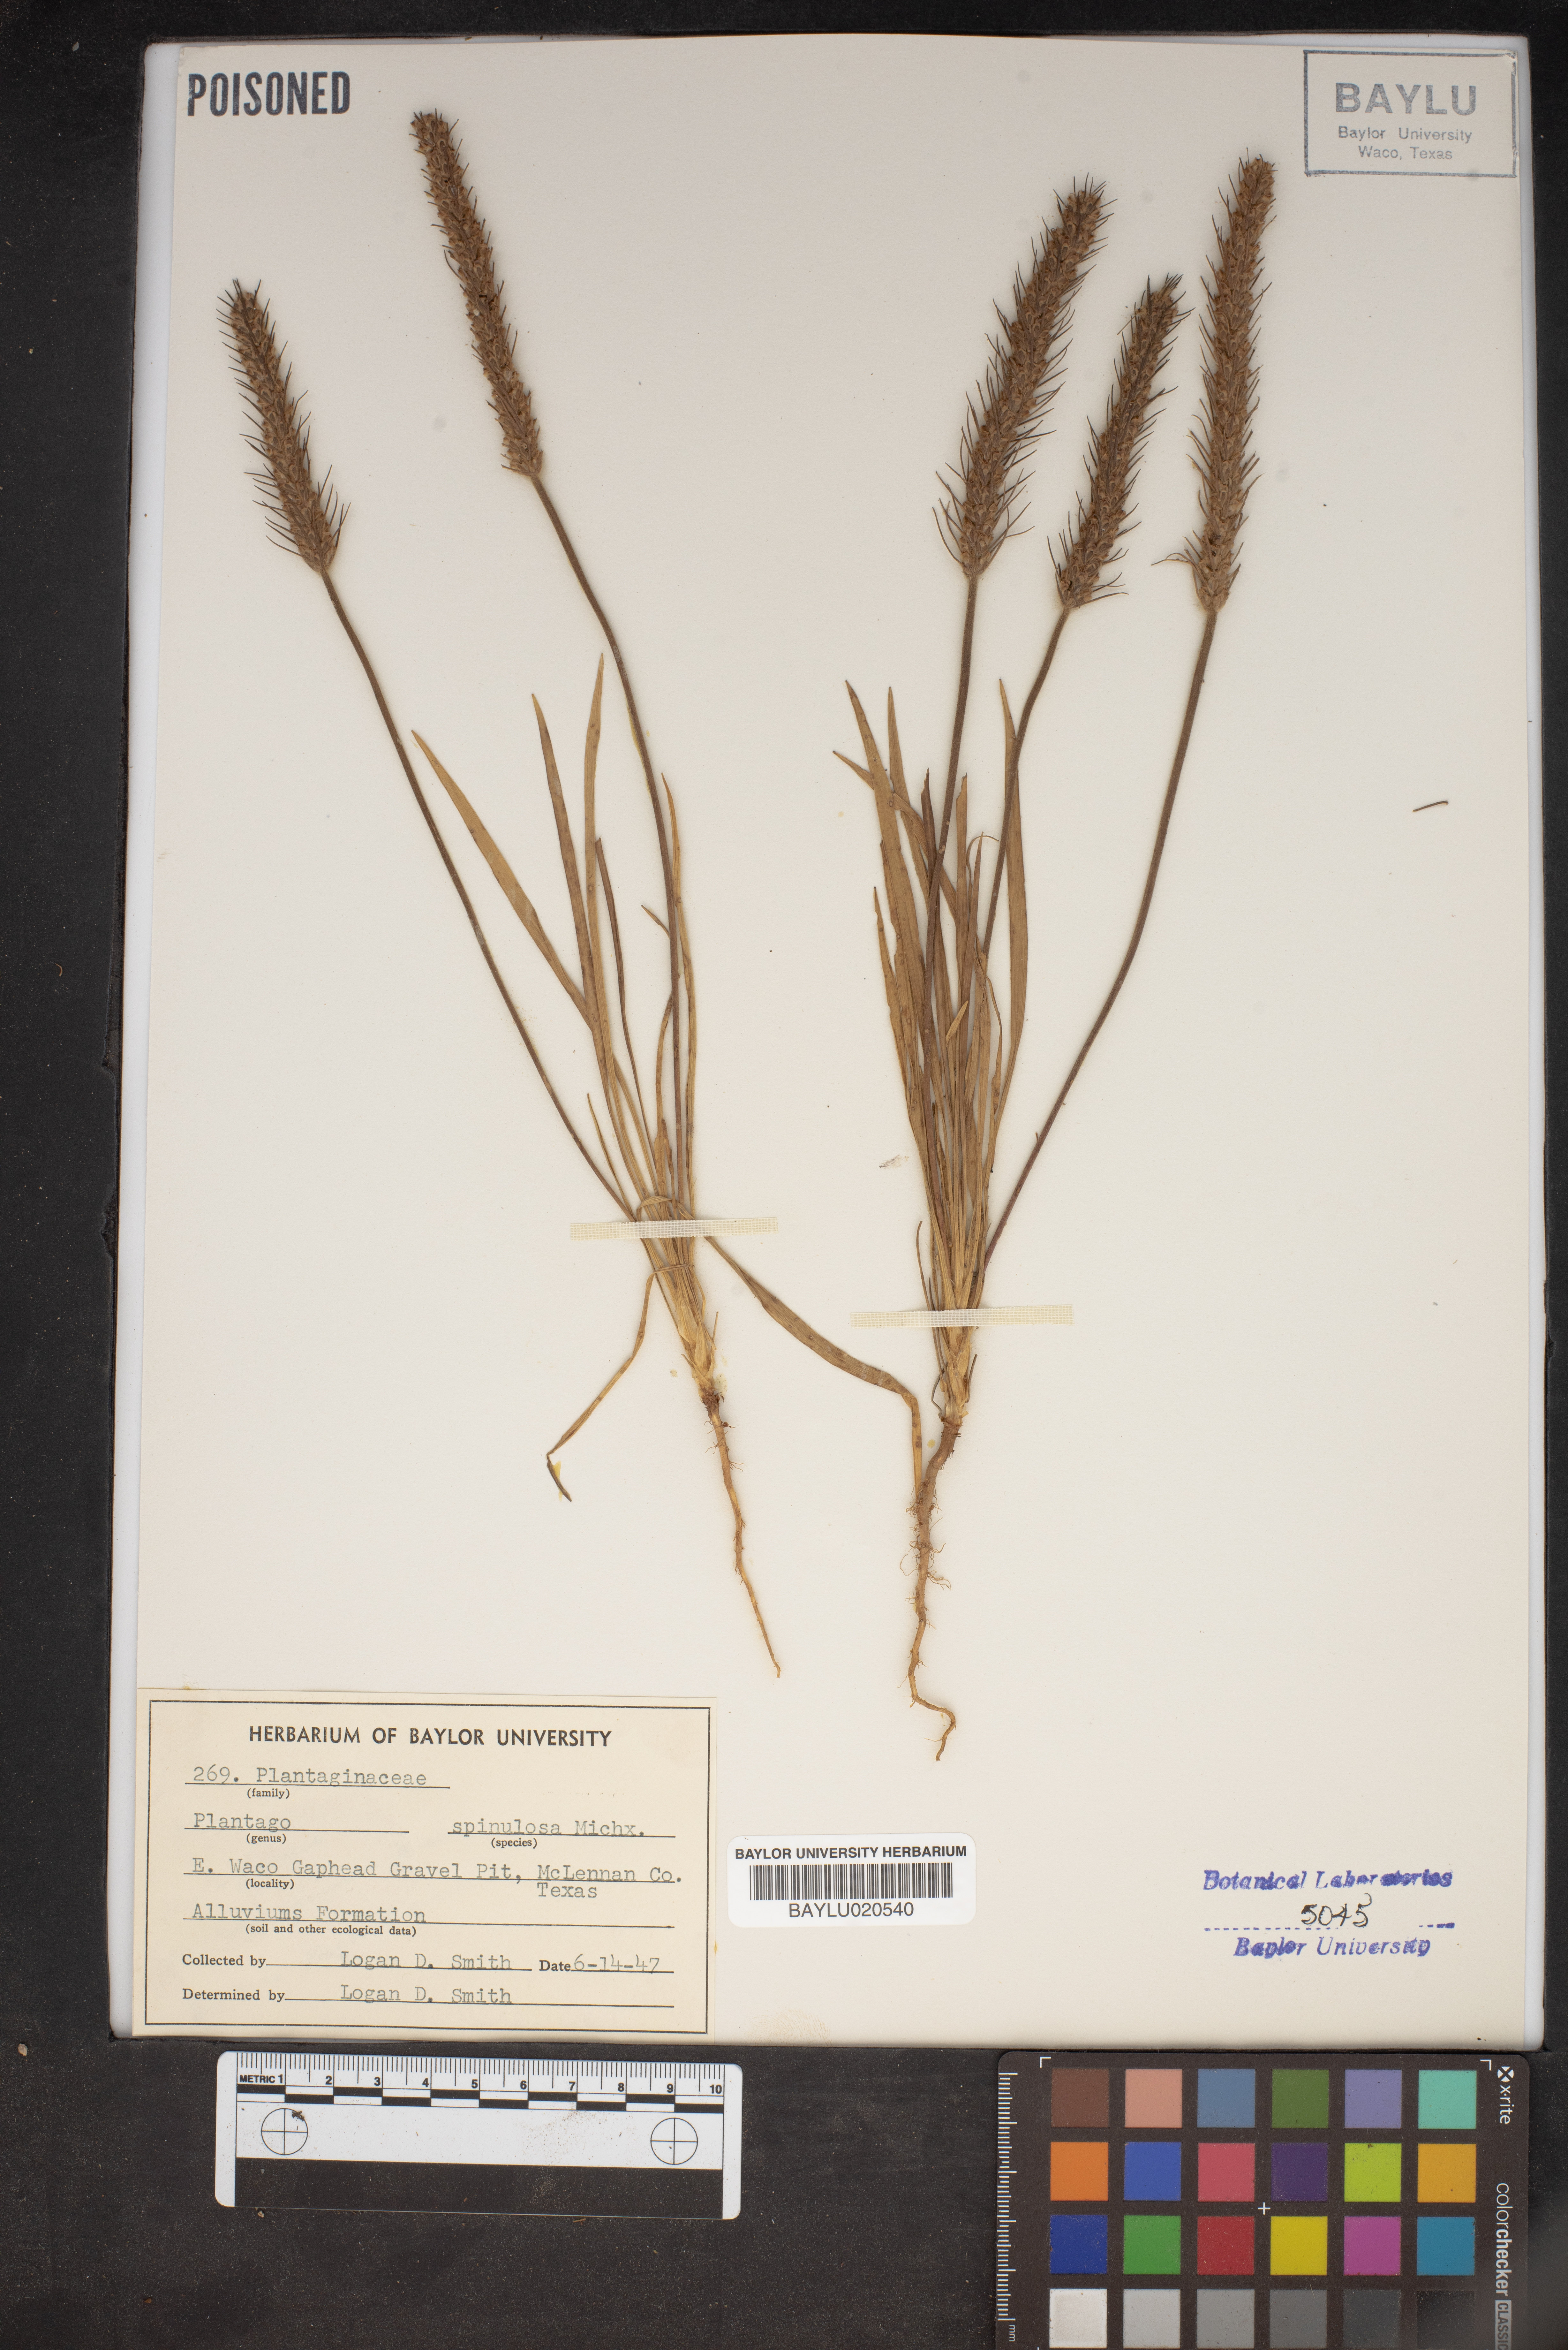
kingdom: Plantae
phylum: Tracheophyta
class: Magnoliopsida
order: Lamiales
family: Plantaginaceae
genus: Plantago
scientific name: Plantago patagonica
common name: Patagonia indian-wheat
